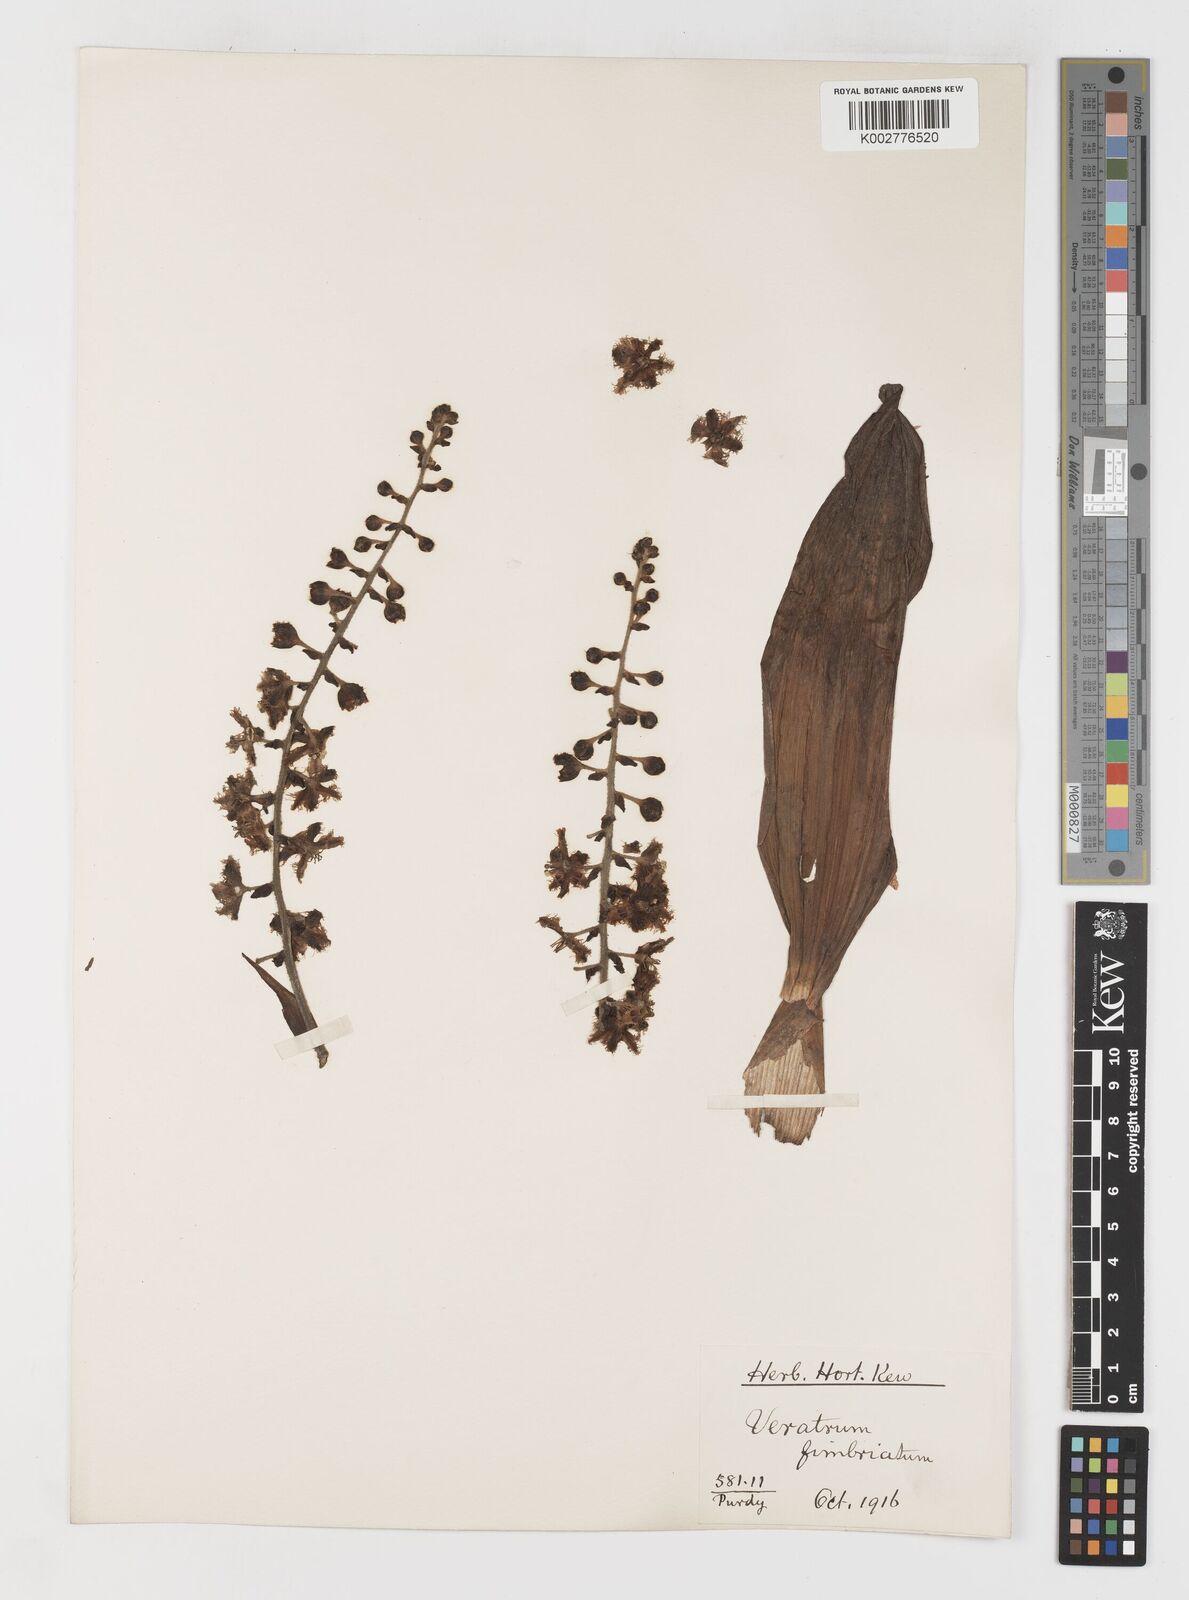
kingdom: Plantae
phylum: Tracheophyta
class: Liliopsida
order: Liliales
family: Melanthiaceae
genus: Veratrum
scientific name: Veratrum fimbriatum
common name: Fringe false hellobore
